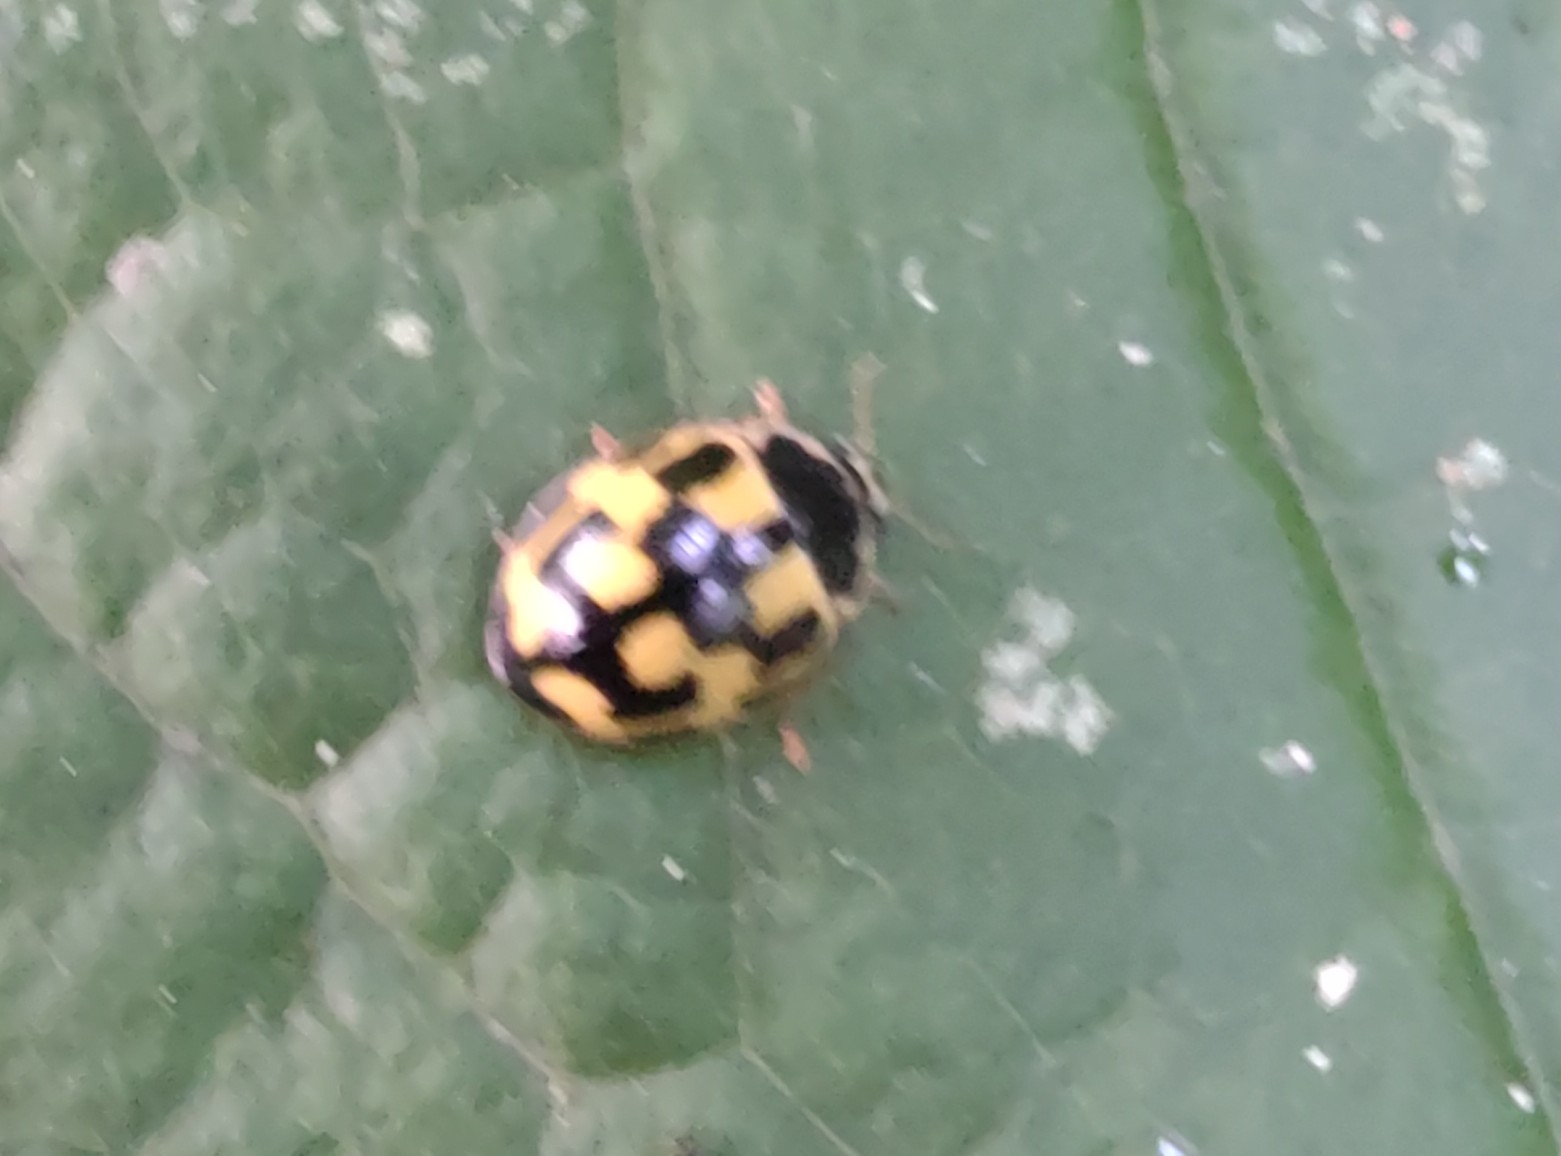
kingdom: Animalia
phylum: Arthropoda
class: Insecta
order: Coleoptera
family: Coccinellidae
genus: Propylaea
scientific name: Propylaea quatuordecimpunctata
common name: Skakbræt
